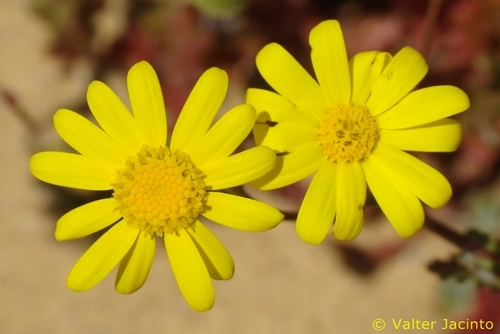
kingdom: Plantae
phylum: Tracheophyta
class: Magnoliopsida
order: Asterales
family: Asteraceae
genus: Senecio
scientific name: Senecio gallicus
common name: French groundsel
